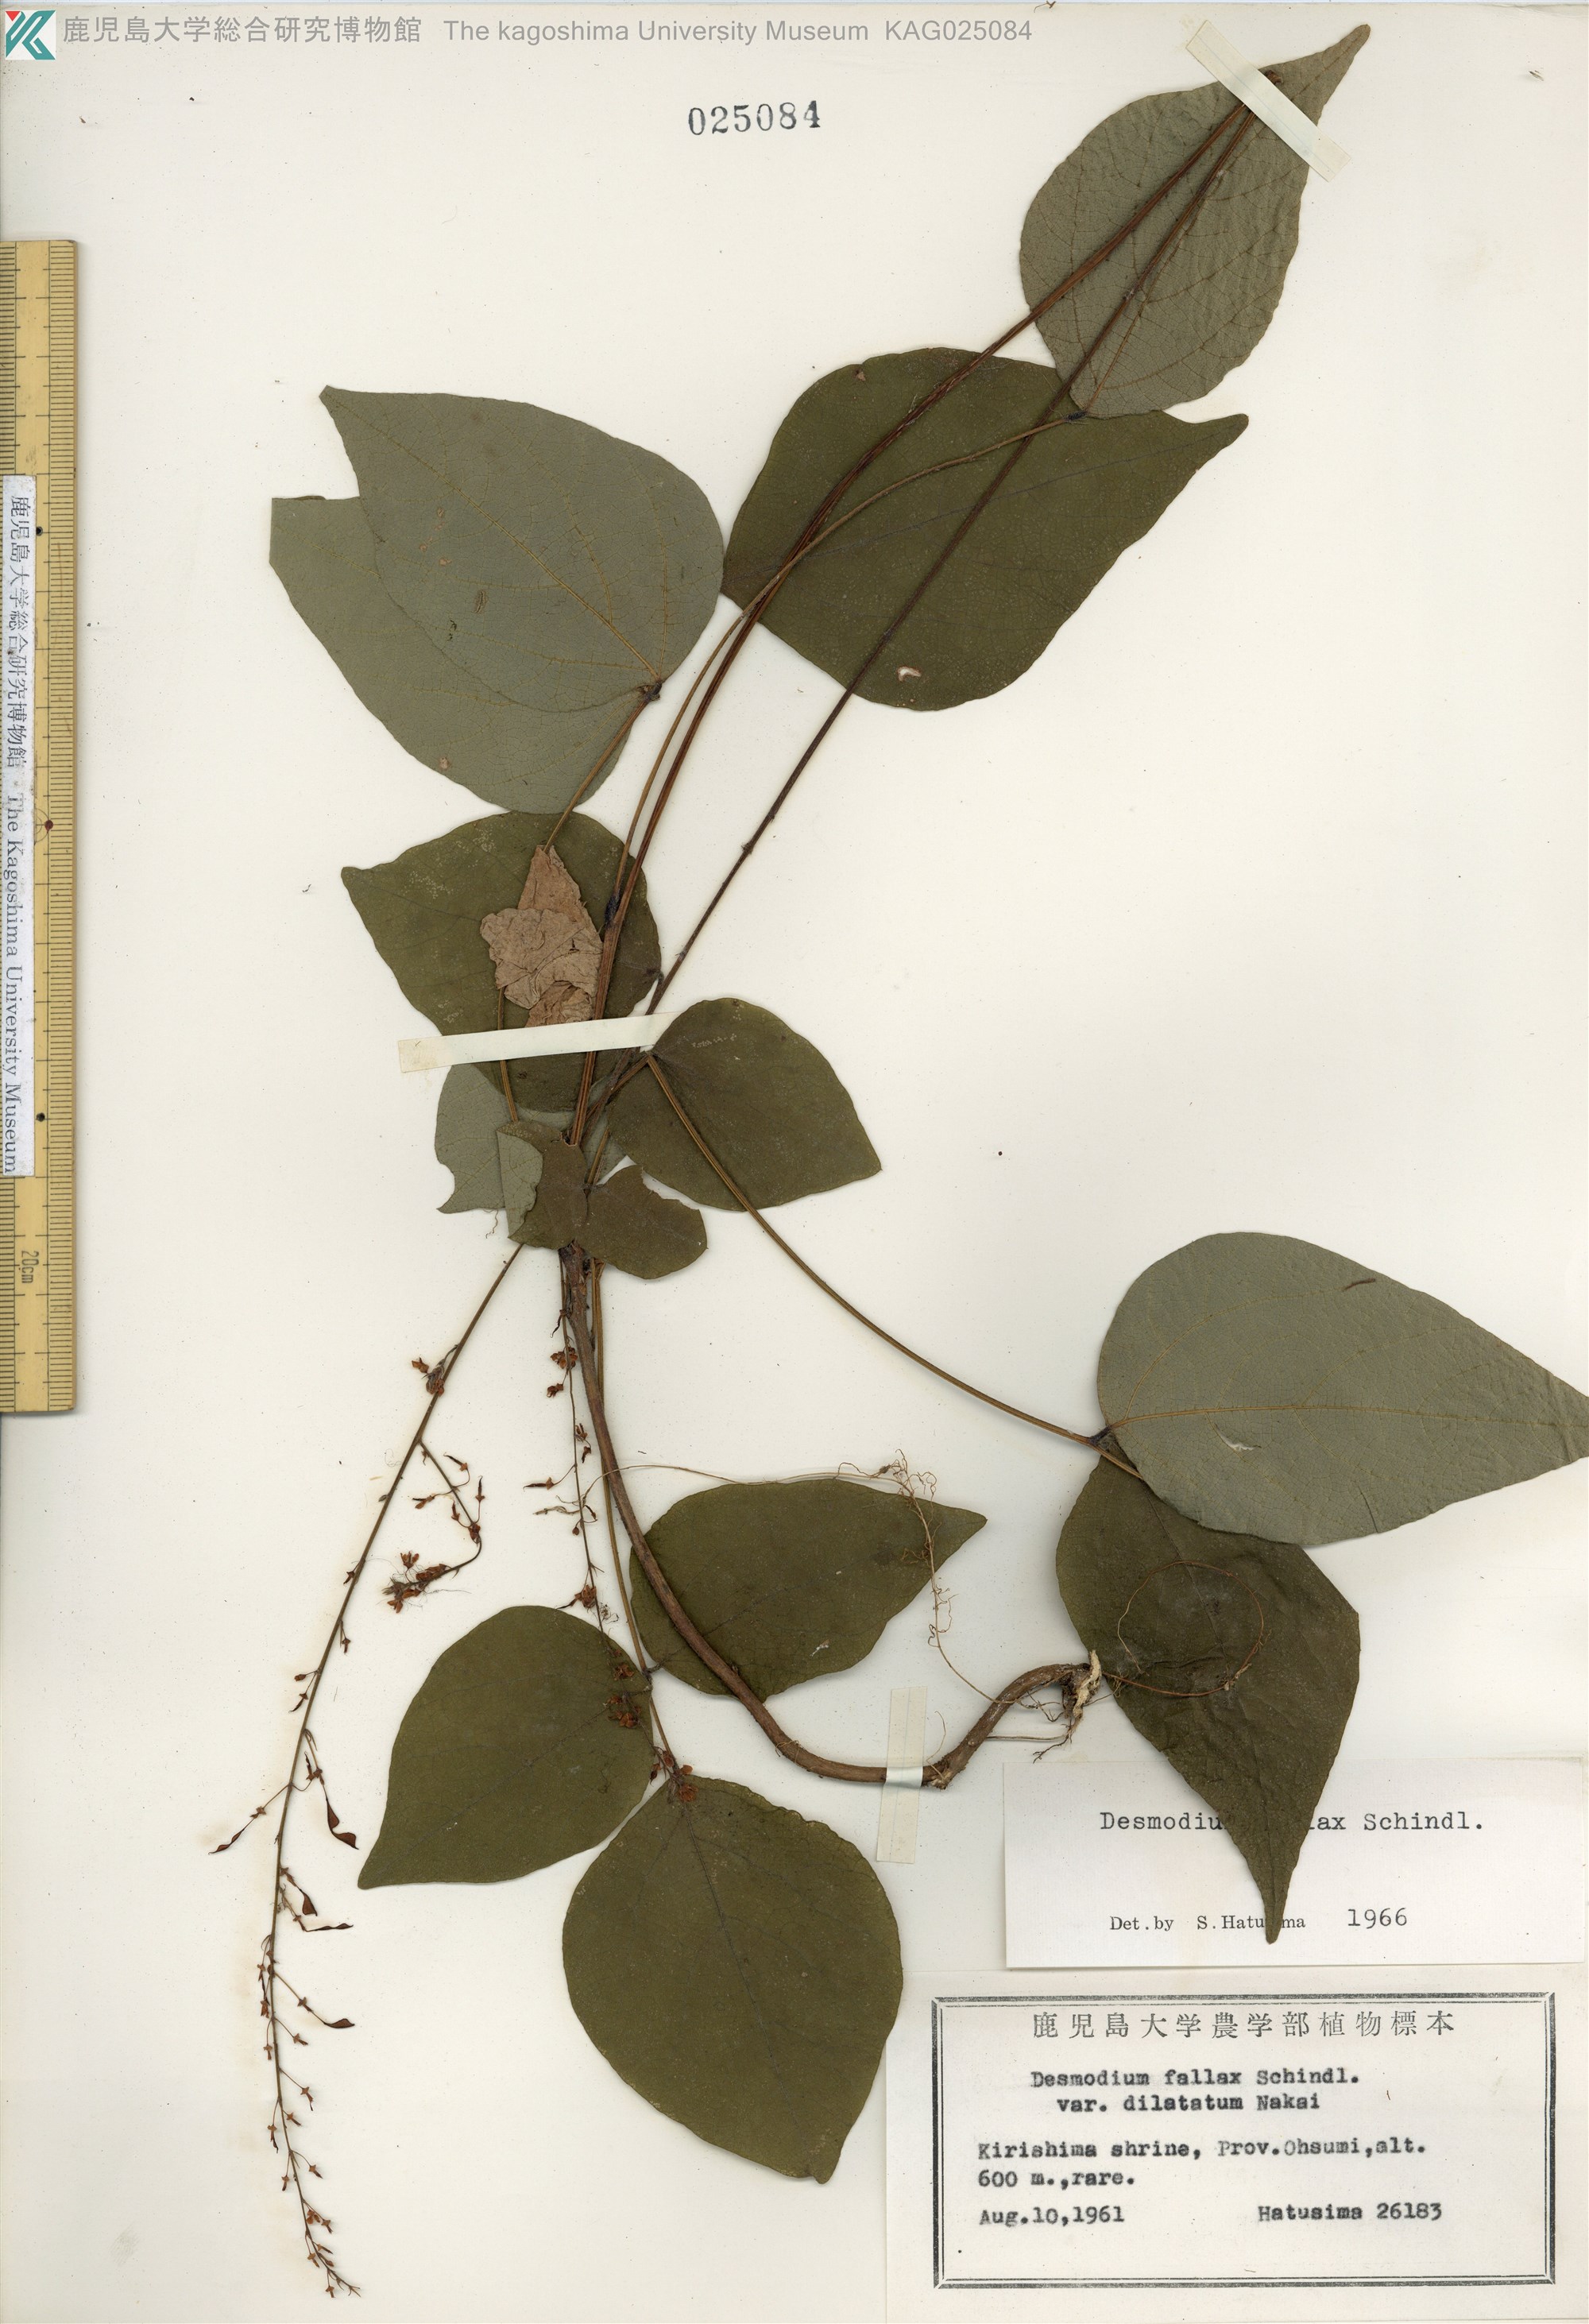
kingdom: Plantae
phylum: Tracheophyta
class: Magnoliopsida
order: Fabales
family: Fabaceae
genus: Hylodesmum
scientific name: Hylodesmum podocarpum
